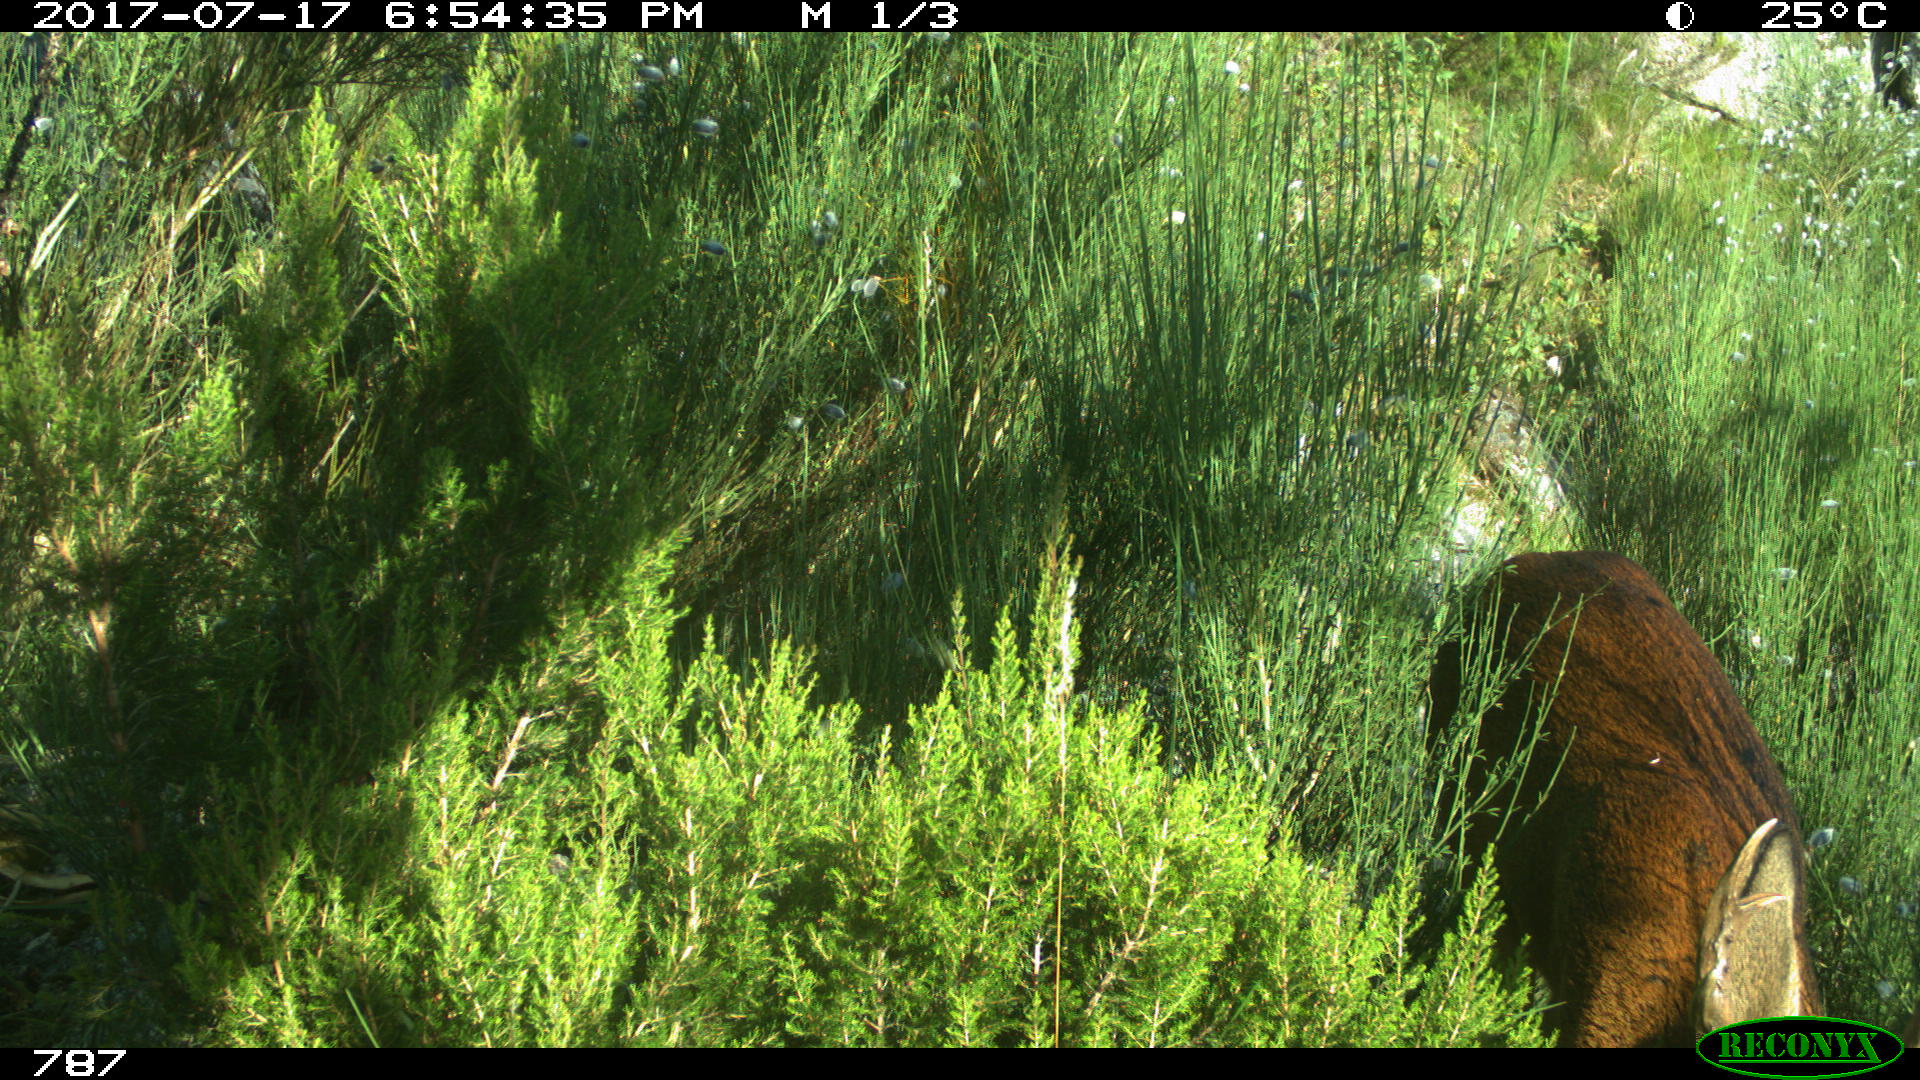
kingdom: Animalia
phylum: Chordata
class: Mammalia
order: Artiodactyla
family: Cervidae
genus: Capreolus
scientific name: Capreolus capreolus
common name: Western roe deer
